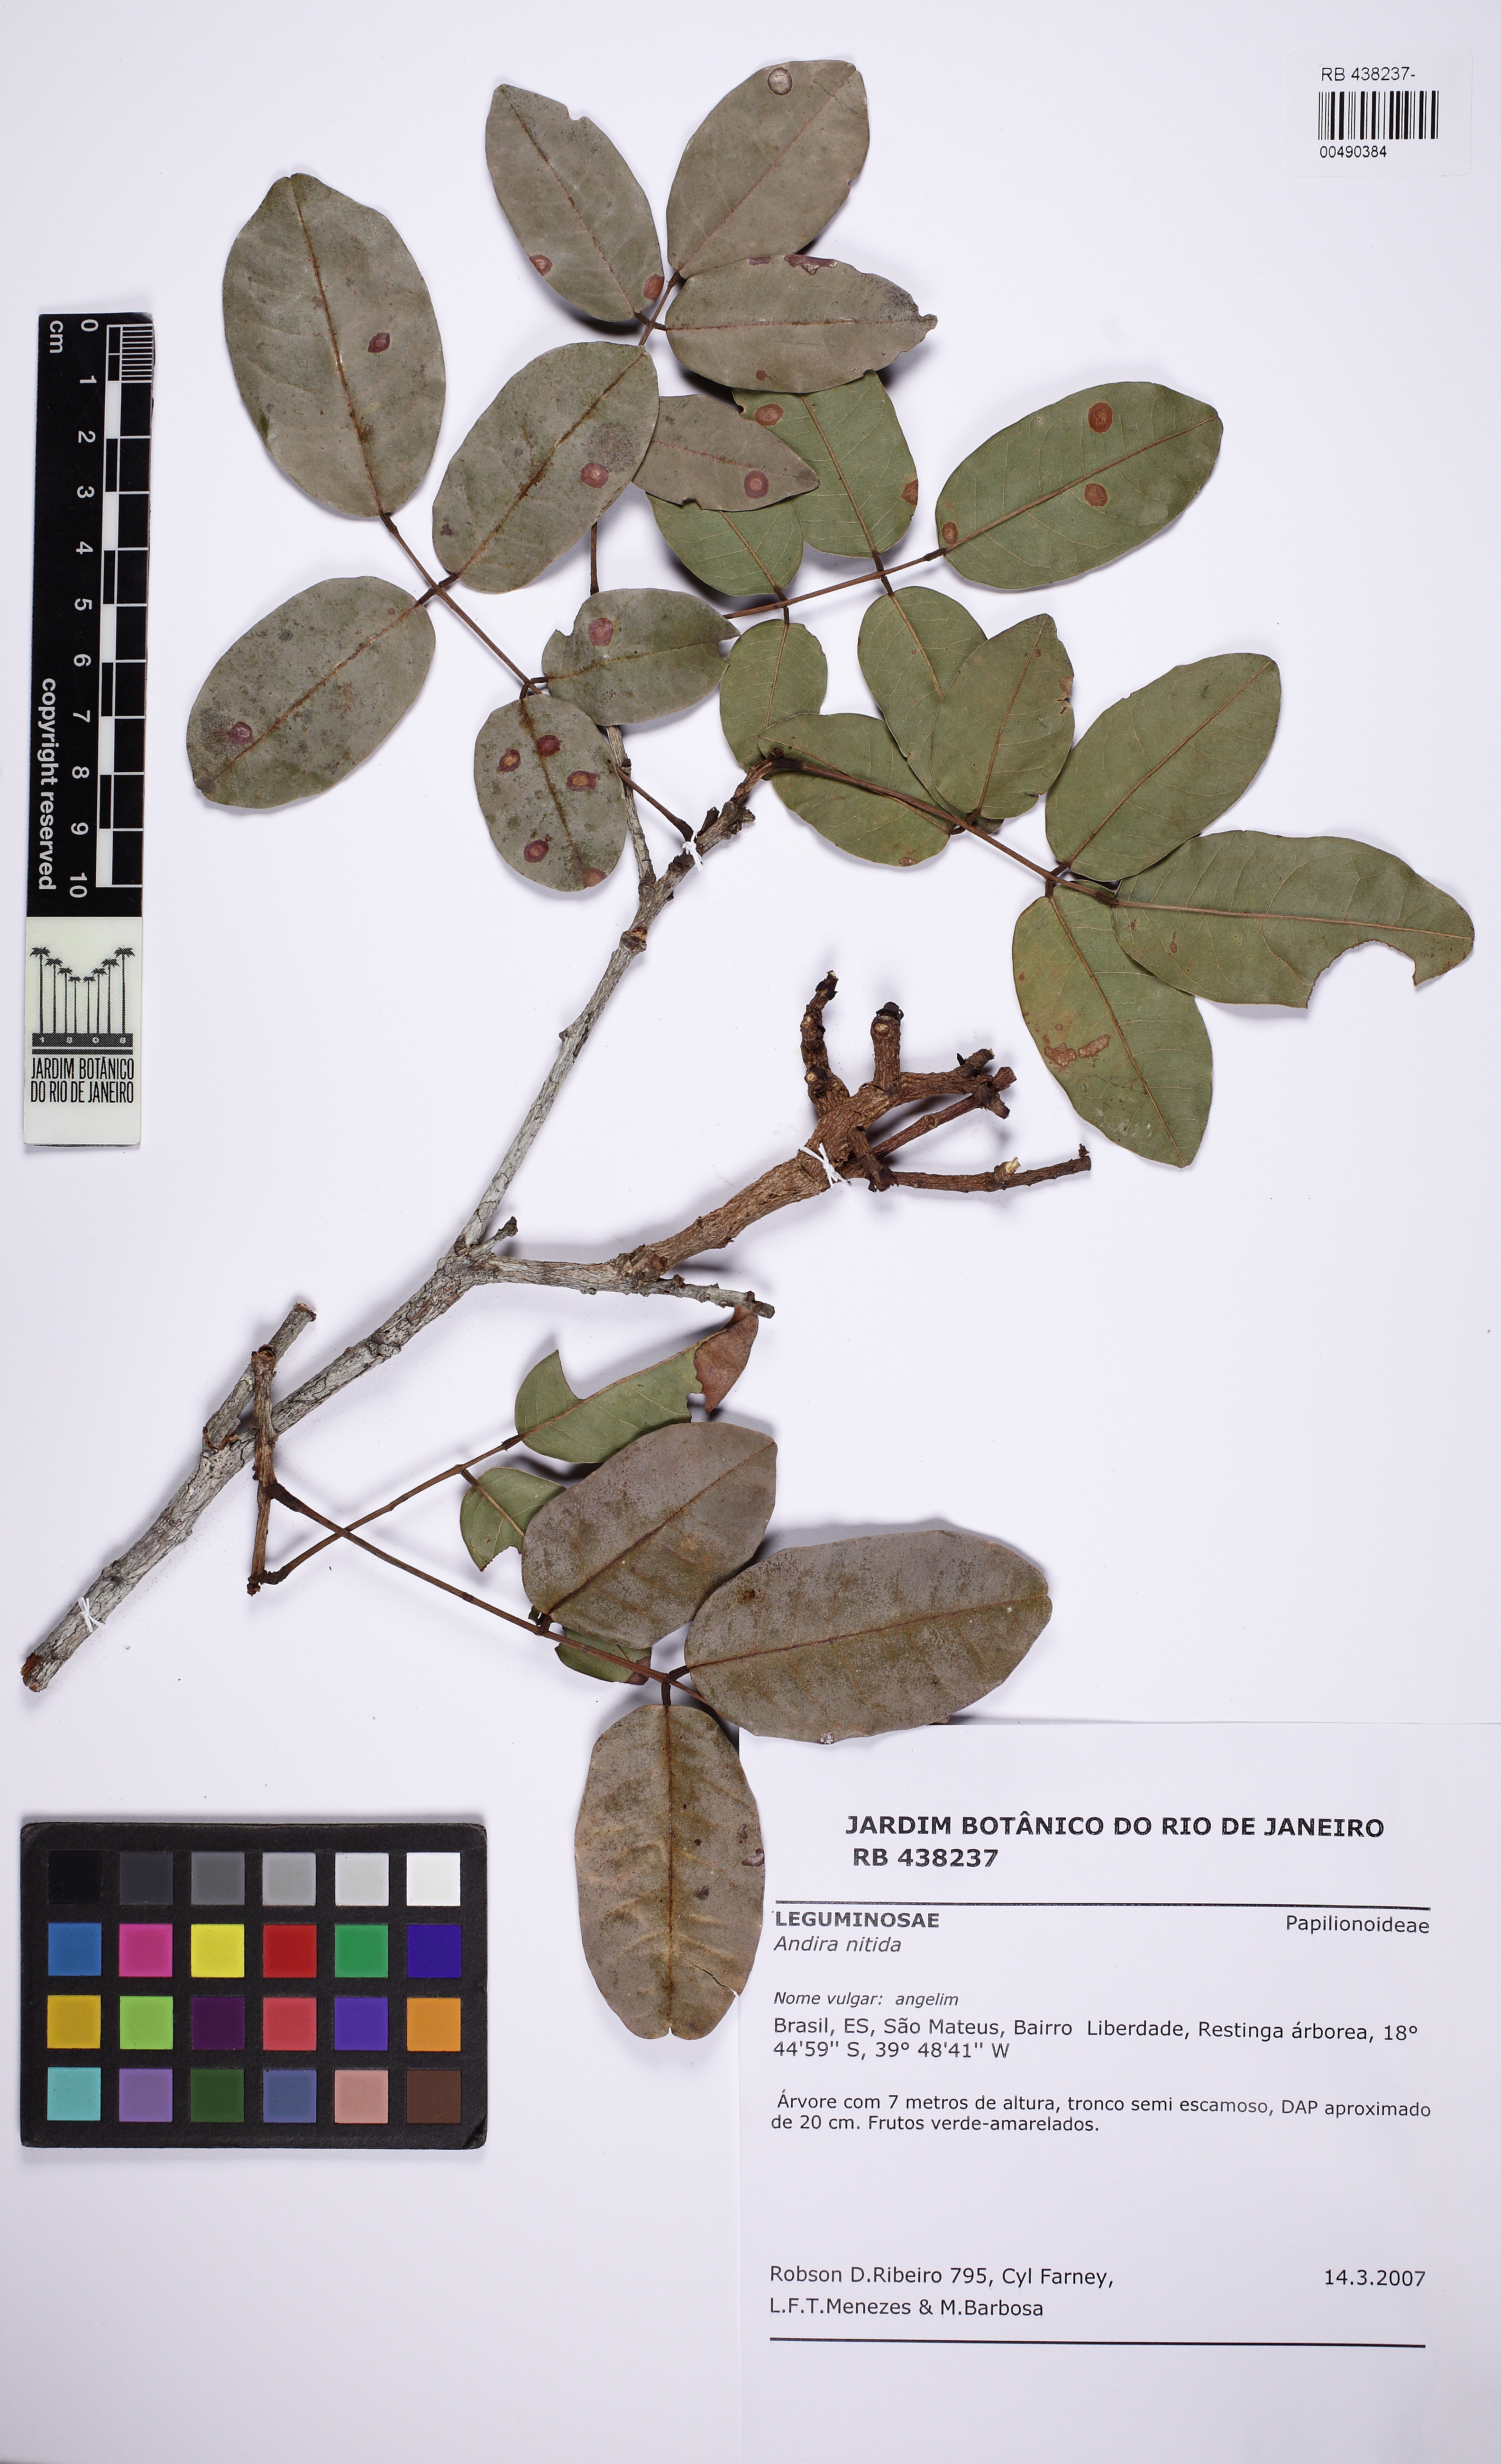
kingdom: Plantae
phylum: Tracheophyta
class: Magnoliopsida
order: Fabales
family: Fabaceae
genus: Andira
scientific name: Andira nitida
